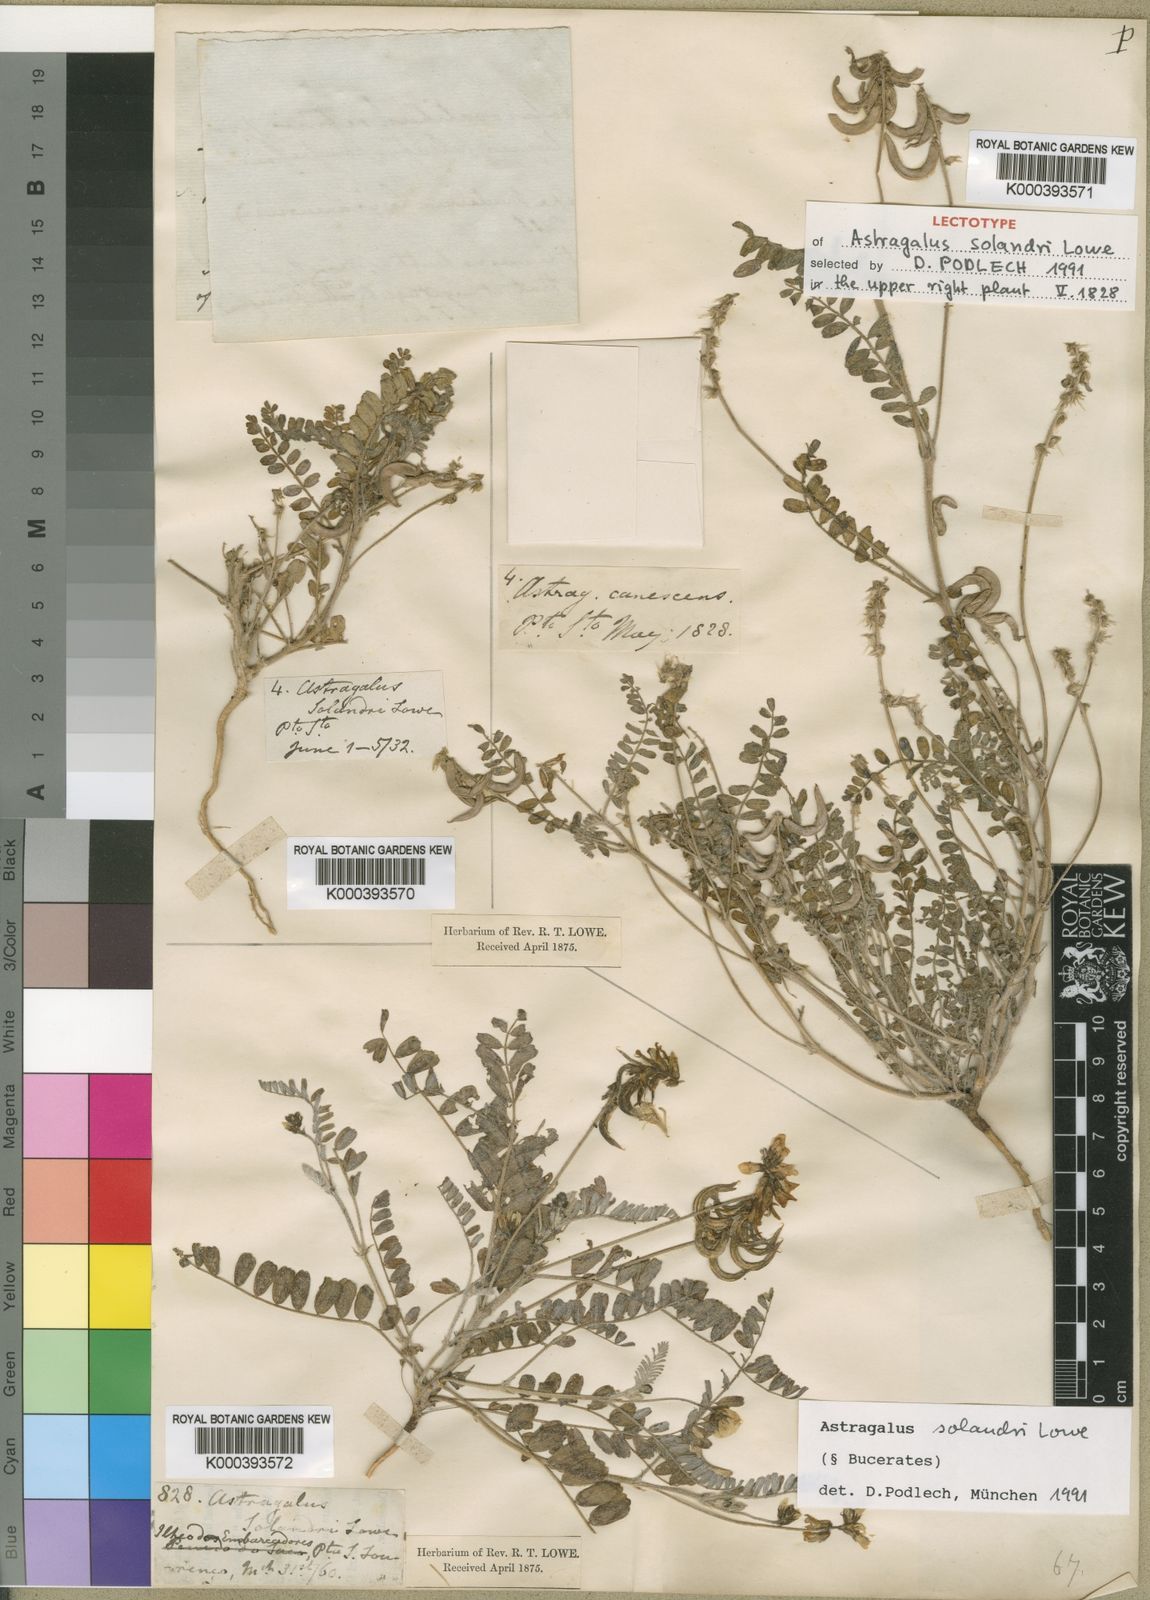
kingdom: Plantae
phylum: Tracheophyta
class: Magnoliopsida
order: Fabales
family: Fabaceae
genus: Astragalus
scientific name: Astragalus solandri
